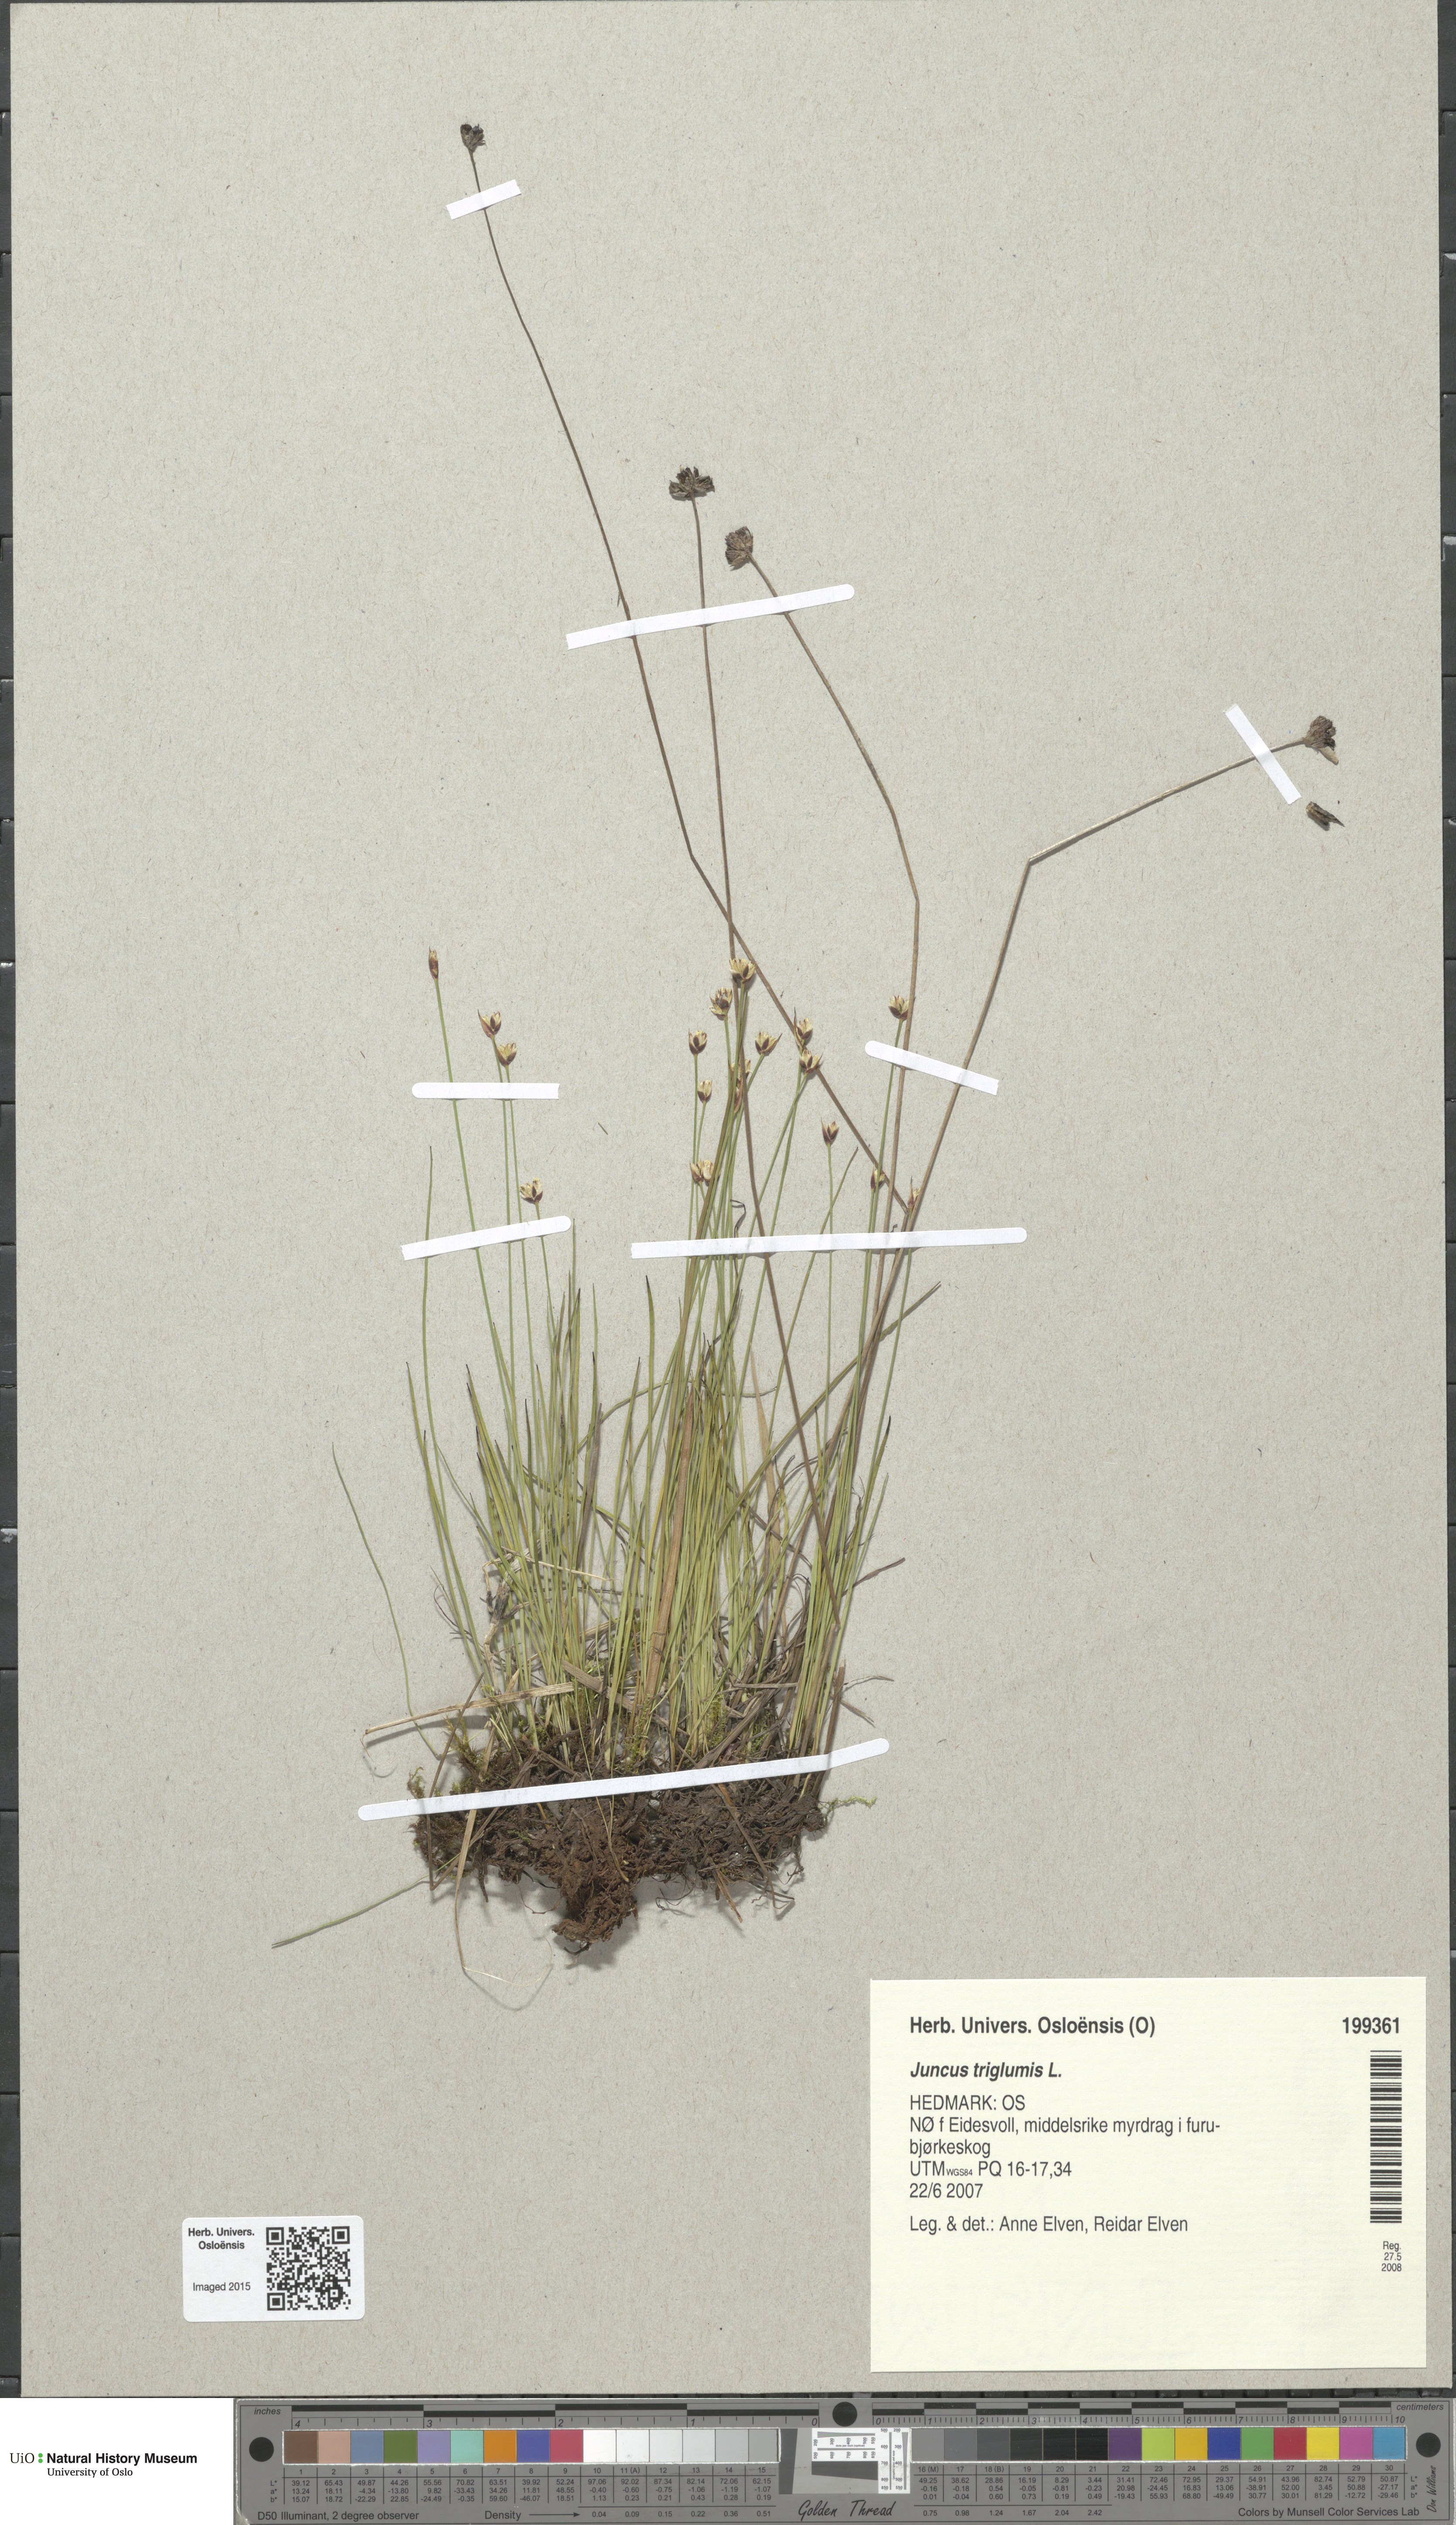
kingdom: Plantae
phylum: Tracheophyta
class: Liliopsida
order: Poales
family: Juncaceae
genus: Juncus
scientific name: Juncus triglumis
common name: Three-flowered rush
